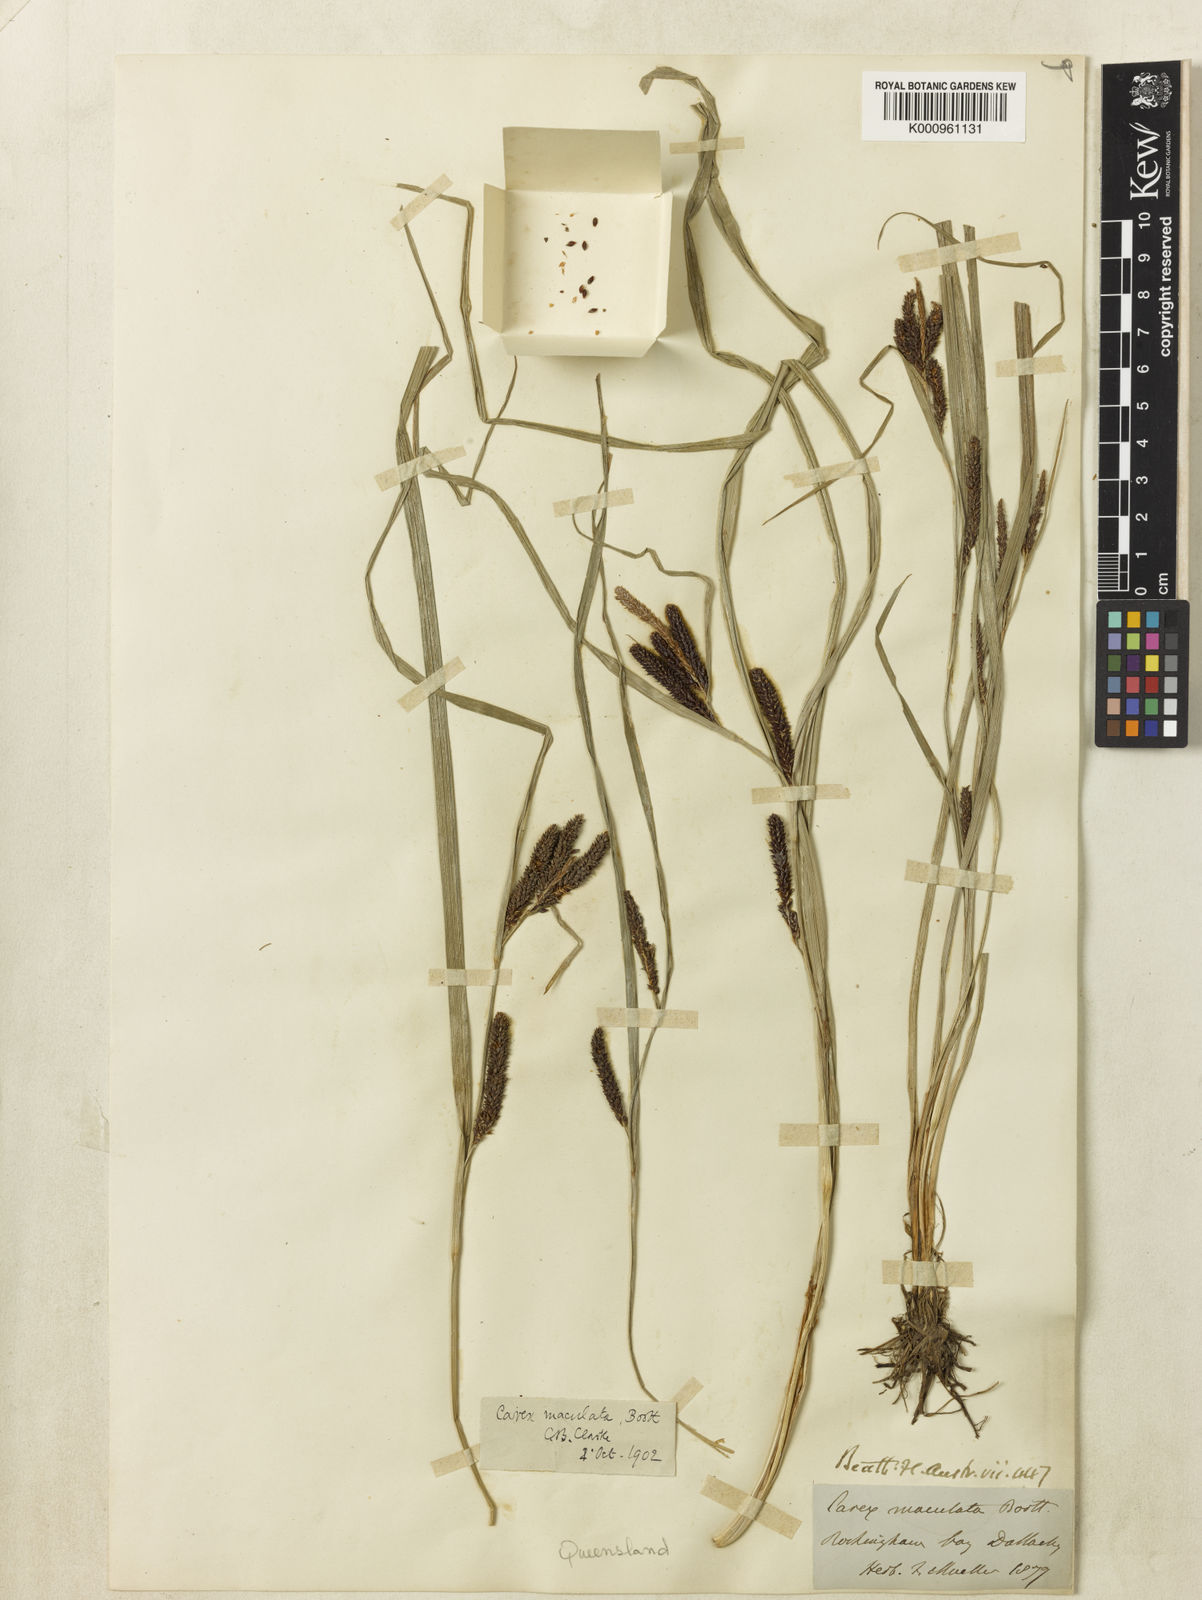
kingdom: Plantae
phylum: Tracheophyta
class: Liliopsida
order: Poales
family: Cyperaceae
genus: Carex
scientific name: Carex maculata
